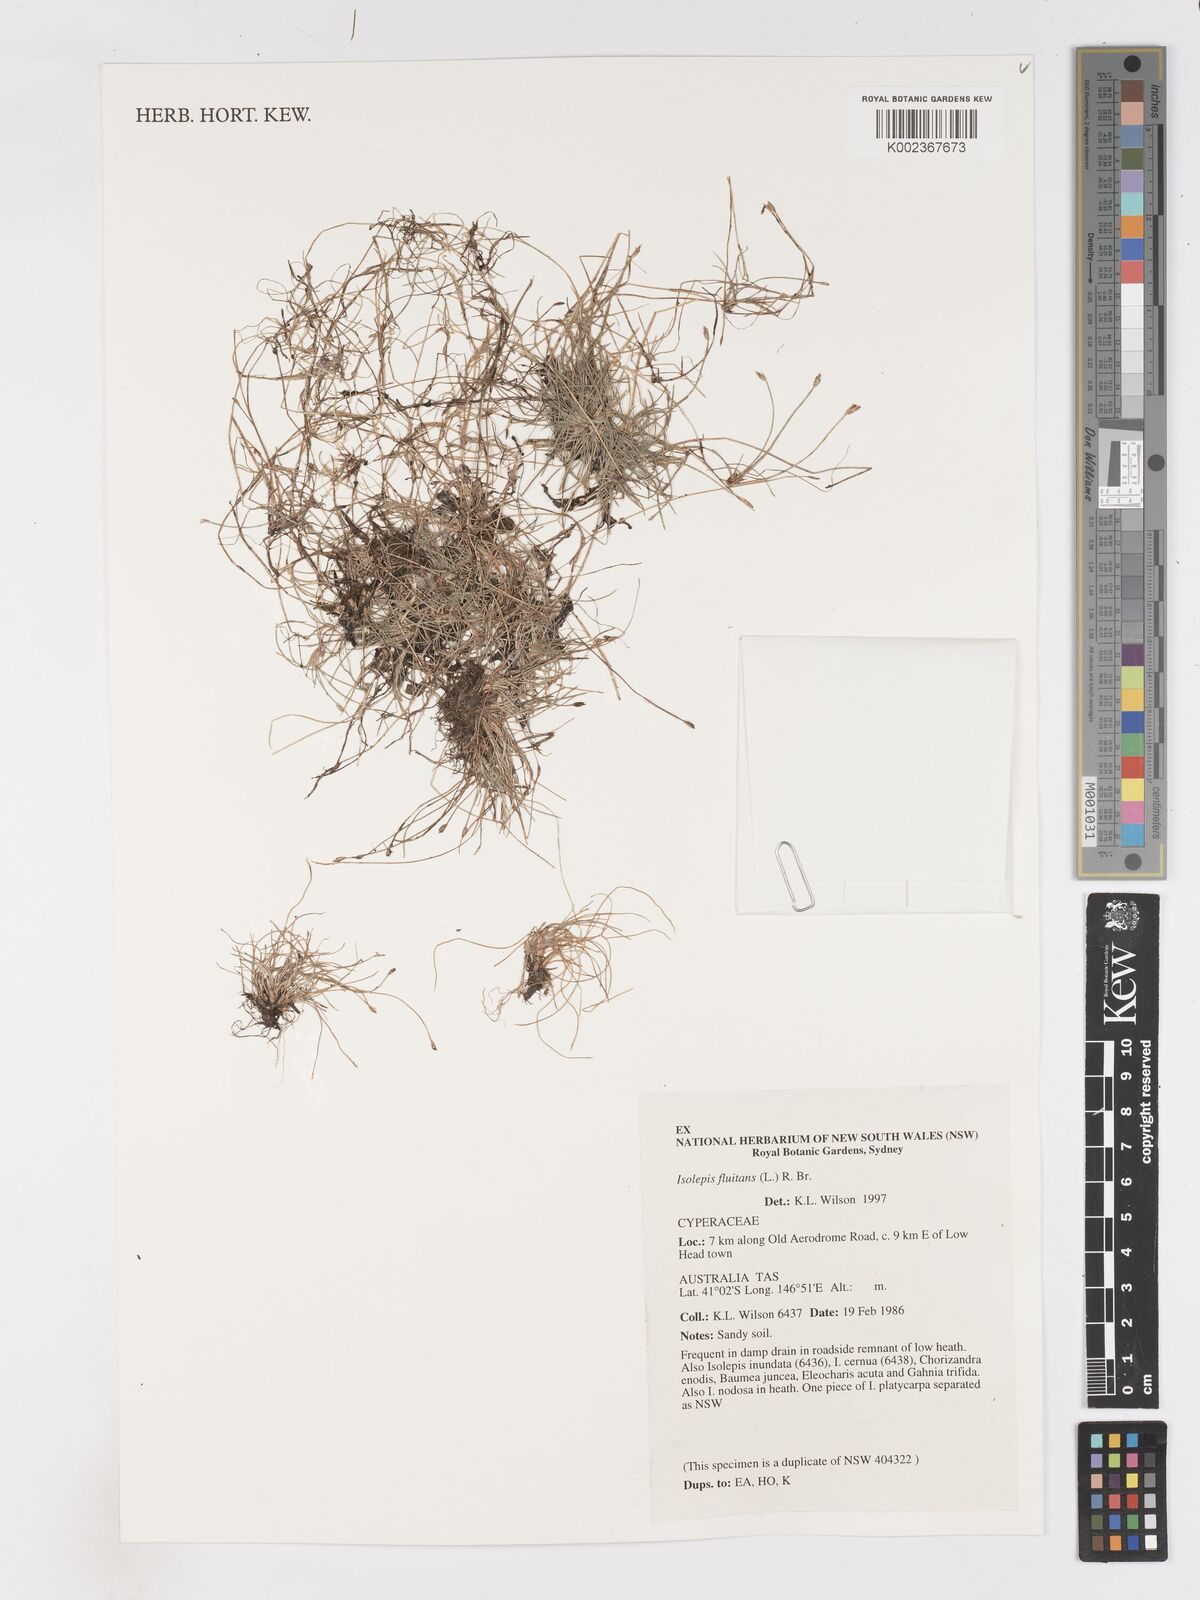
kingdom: Plantae
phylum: Tracheophyta
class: Liliopsida
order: Poales
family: Cyperaceae
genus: Isolepis
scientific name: Isolepis fluitans
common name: Floating club-rush
